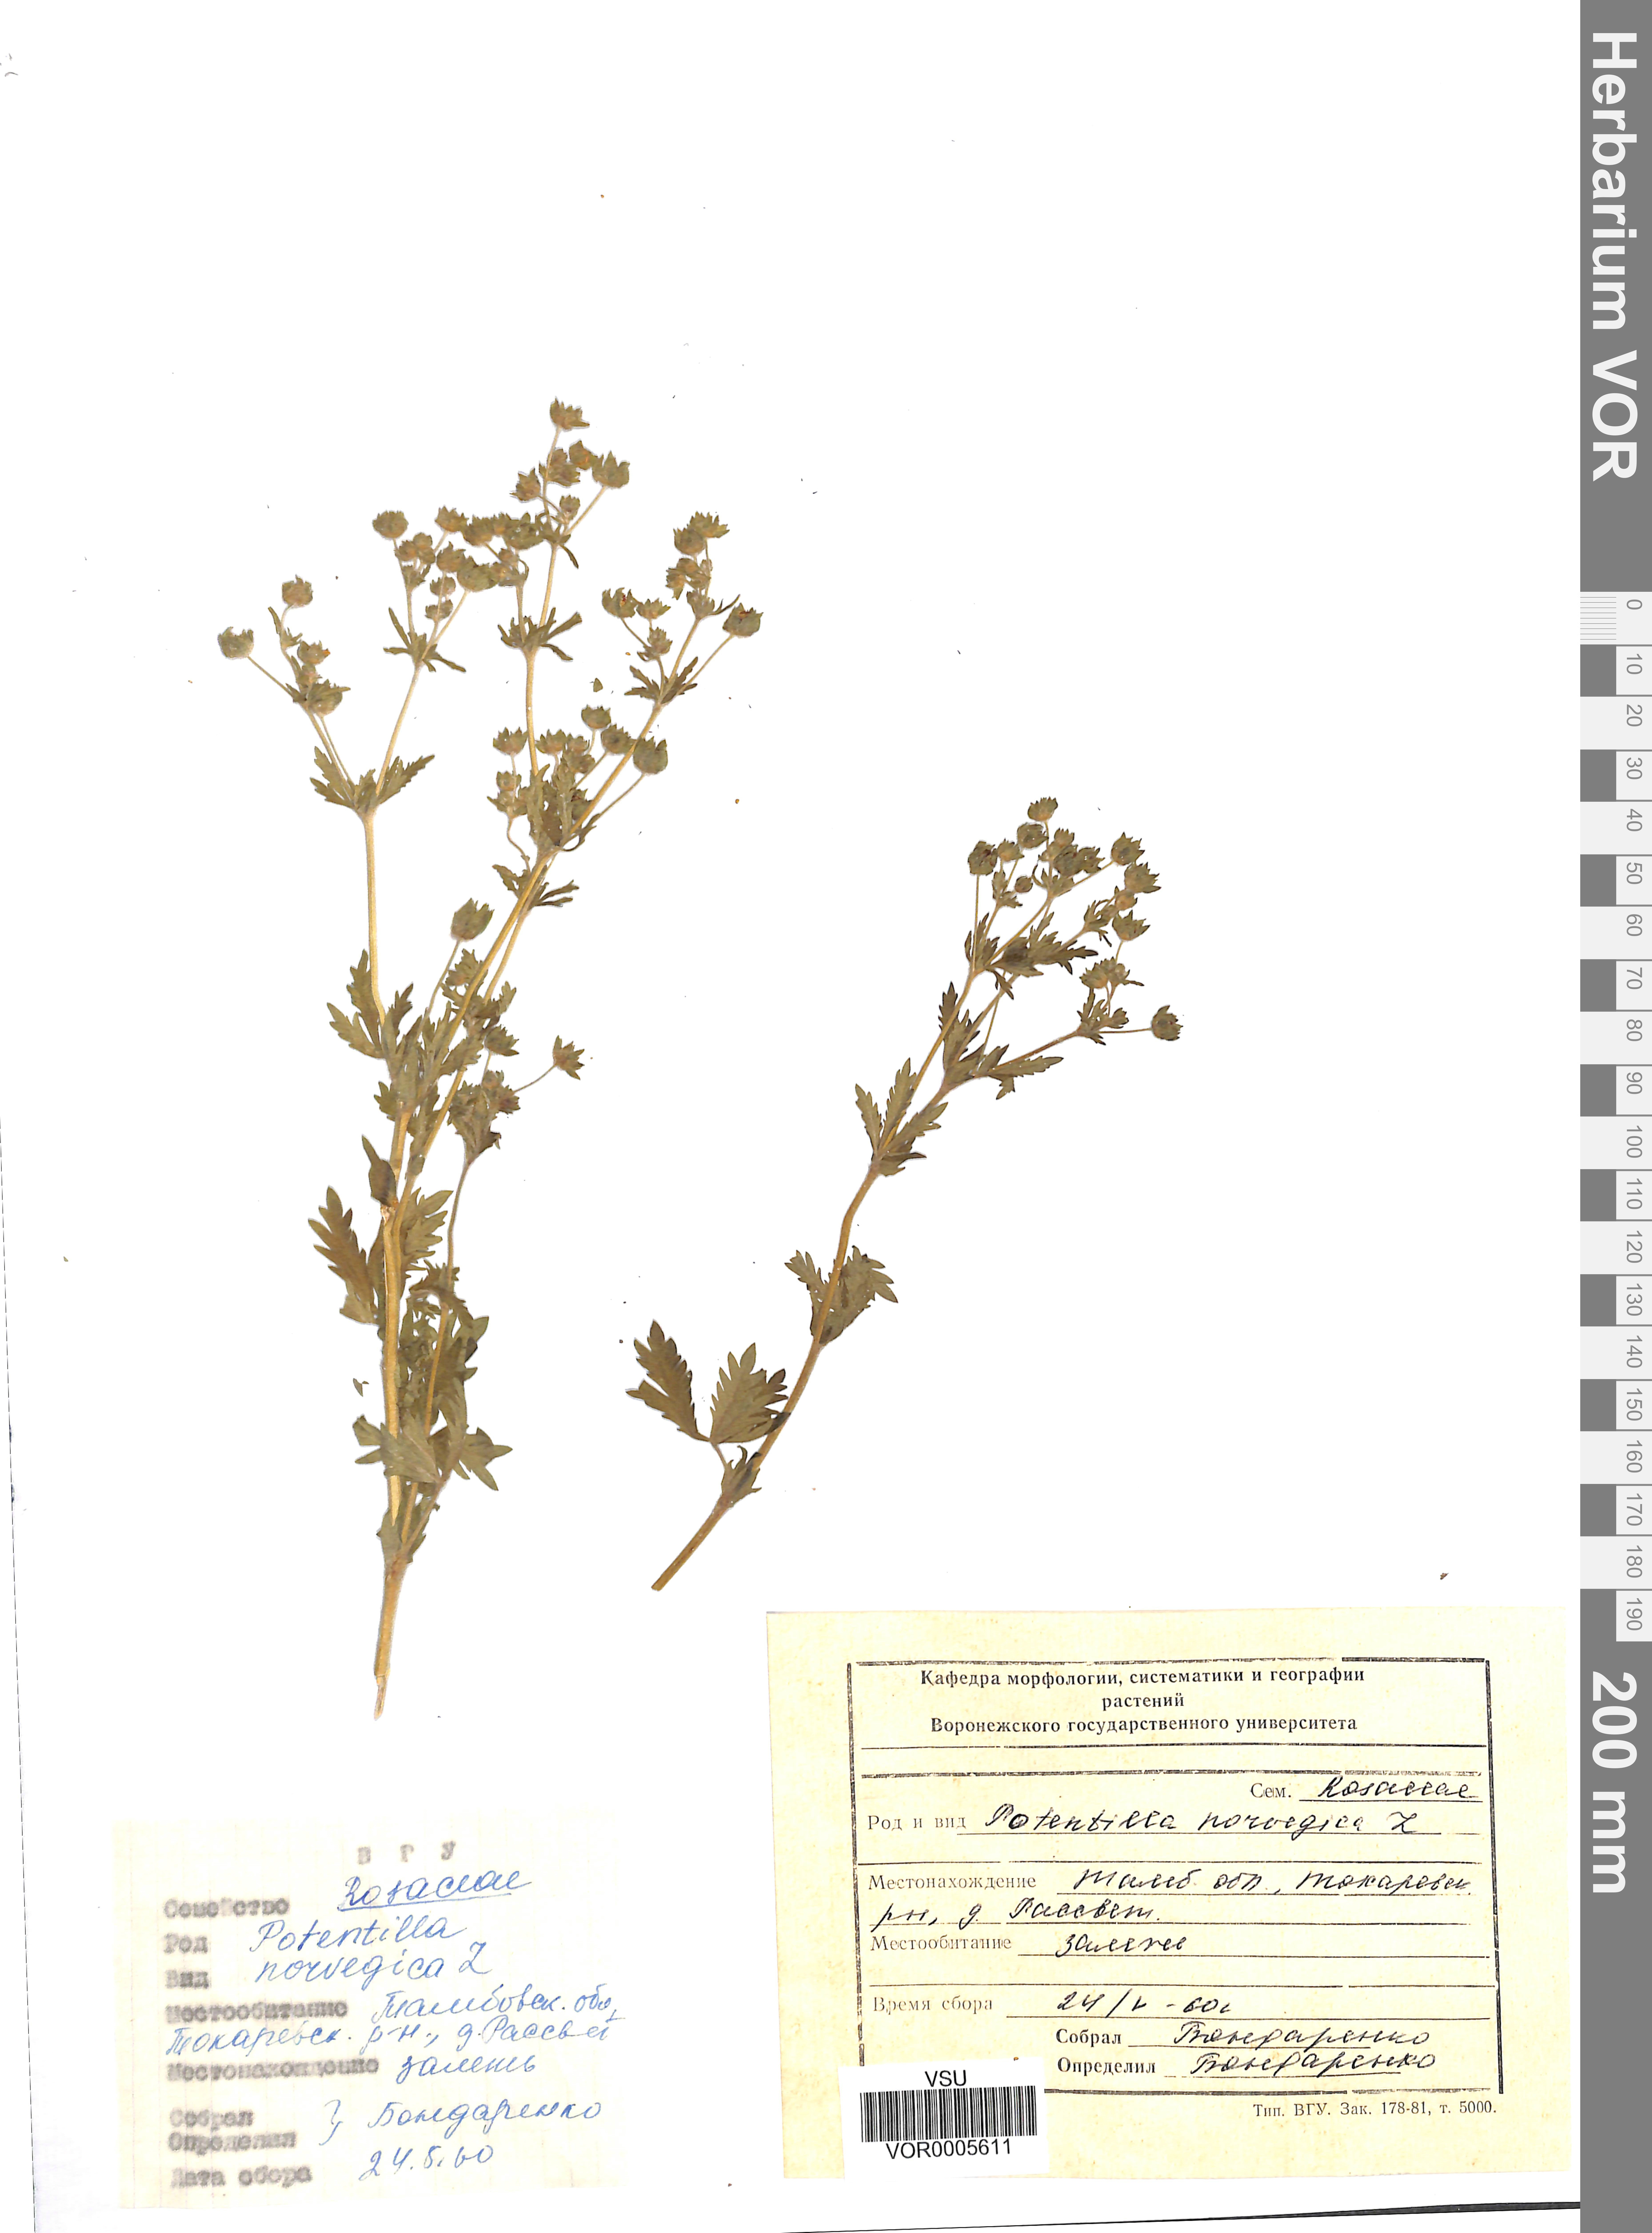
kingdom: Plantae
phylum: Tracheophyta
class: Magnoliopsida
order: Rosales
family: Rosaceae
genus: Potentilla
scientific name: Potentilla erecta
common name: Tormentil
